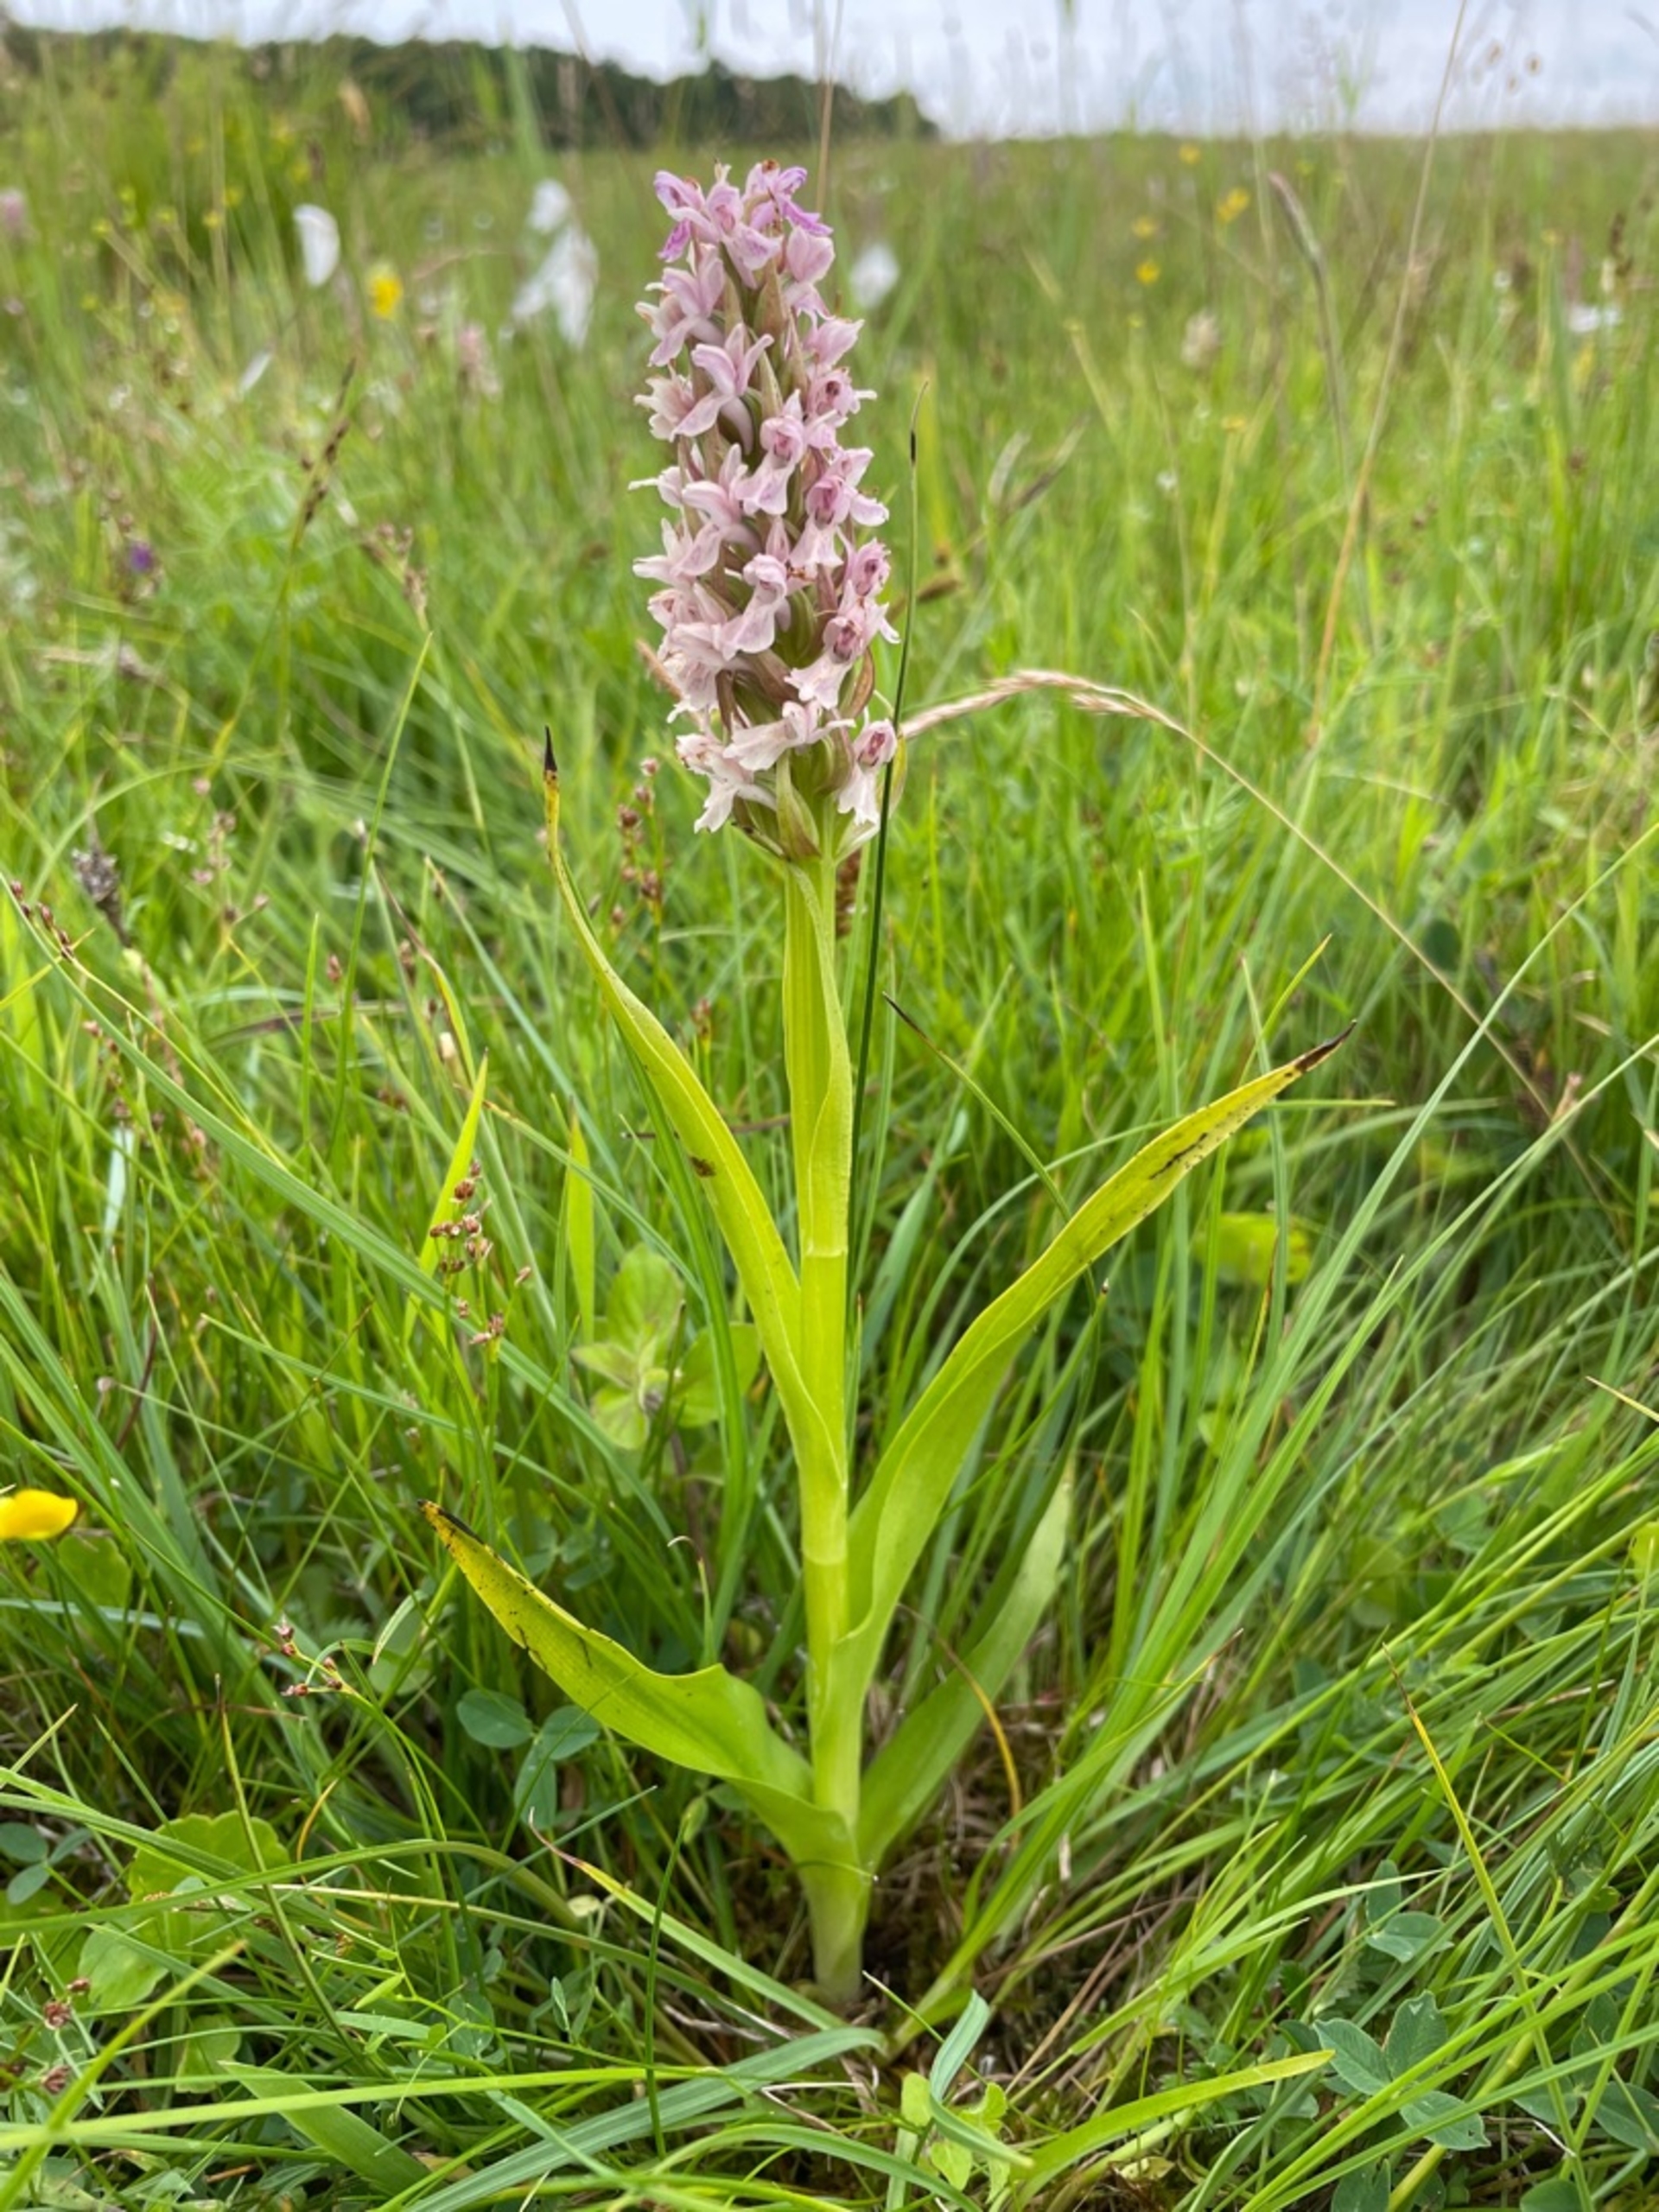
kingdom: Plantae
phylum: Tracheophyta
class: Liliopsida
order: Asparagales
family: Orchidaceae
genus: Dactylorhiza
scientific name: Dactylorhiza incarnata
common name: Kødfarvet gøgeurt
